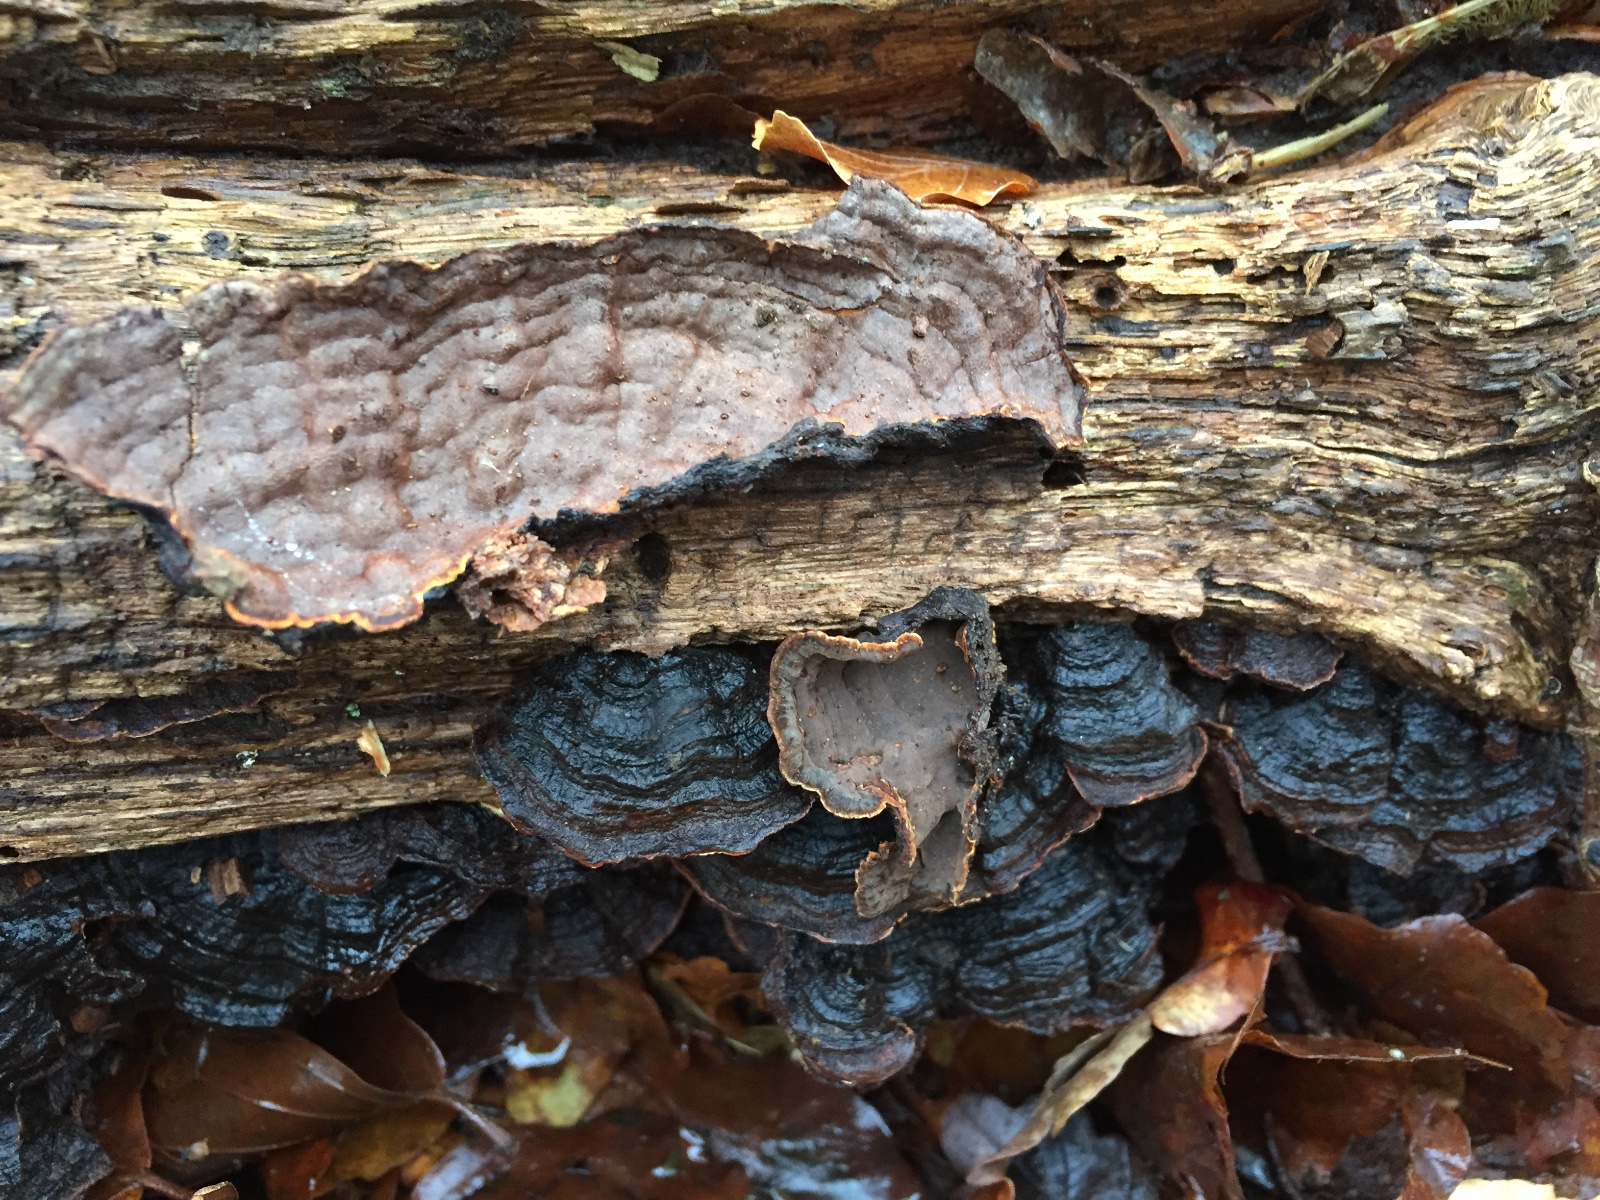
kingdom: Fungi
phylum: Basidiomycota
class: Agaricomycetes
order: Hymenochaetales
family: Hymenochaetaceae
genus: Hymenochaete
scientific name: Hymenochaete rubiginosa
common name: stiv ruslædersvamp
